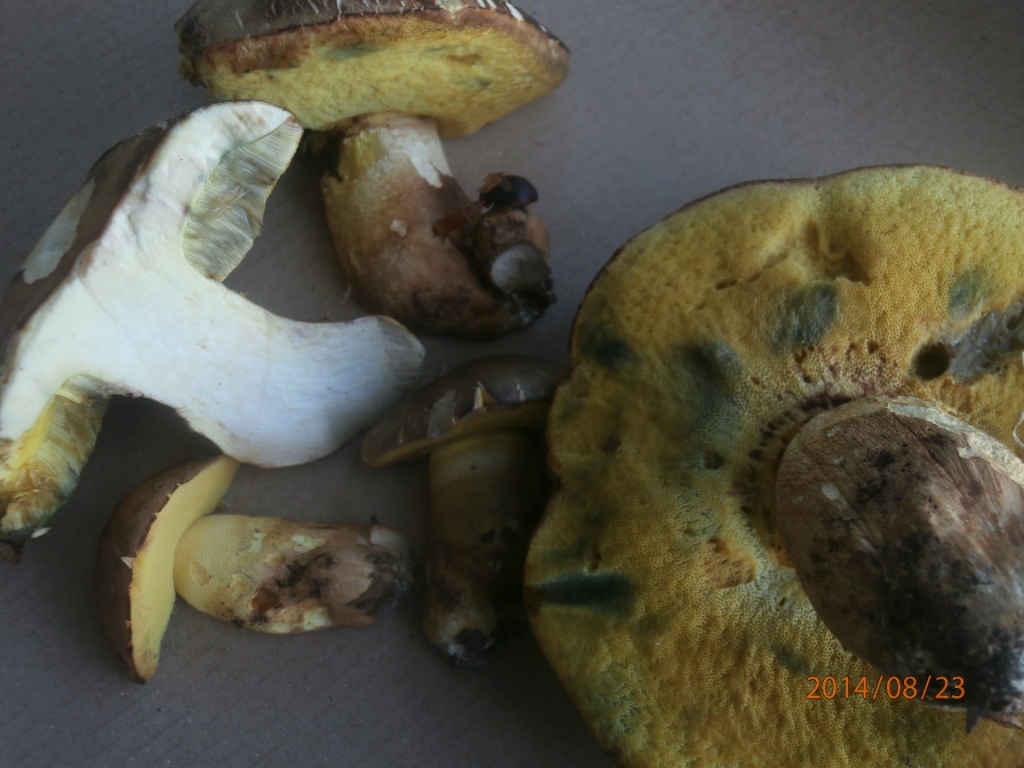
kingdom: Fungi
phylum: Basidiomycota
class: Agaricomycetes
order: Boletales
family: Boletaceae
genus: Butyriboletus
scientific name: Butyriboletus appendiculatus
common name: tenstokket rørhat
